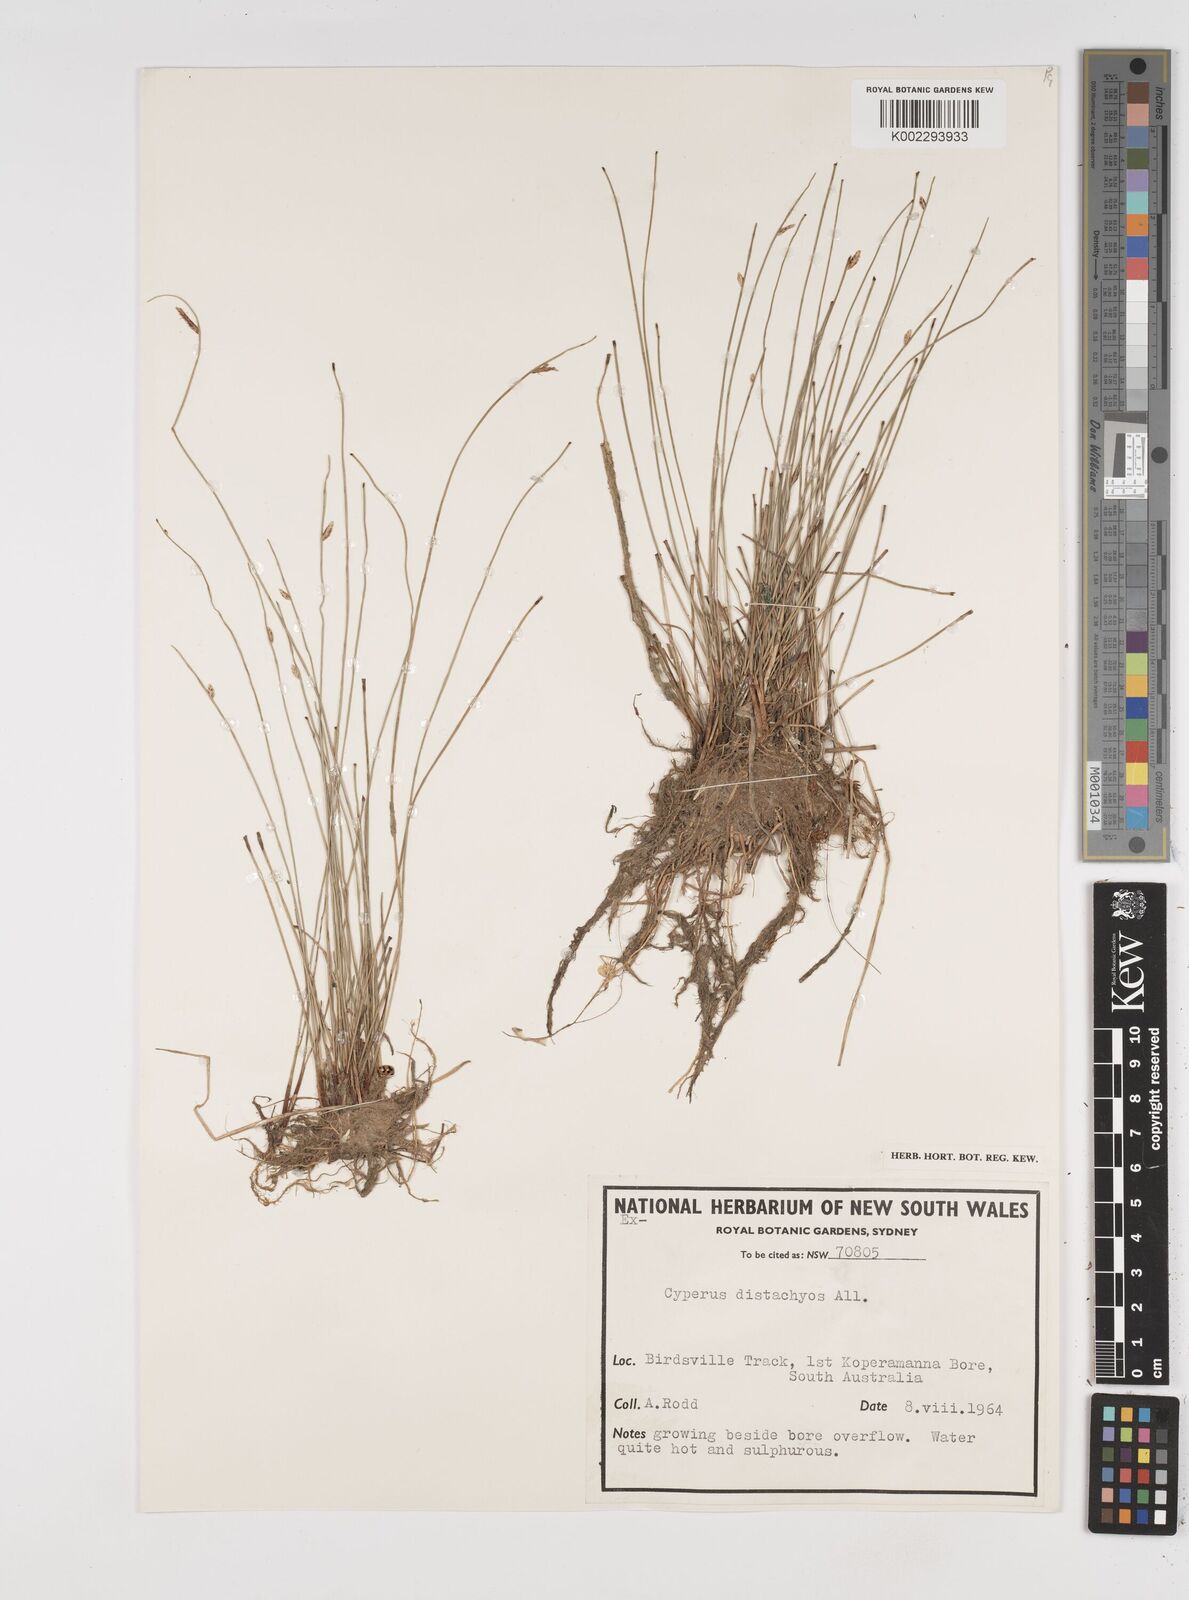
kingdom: Plantae
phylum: Tracheophyta
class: Liliopsida
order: Poales
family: Cyperaceae
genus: Cyperus
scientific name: Cyperus laevigatus
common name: Smooth flat sedge
